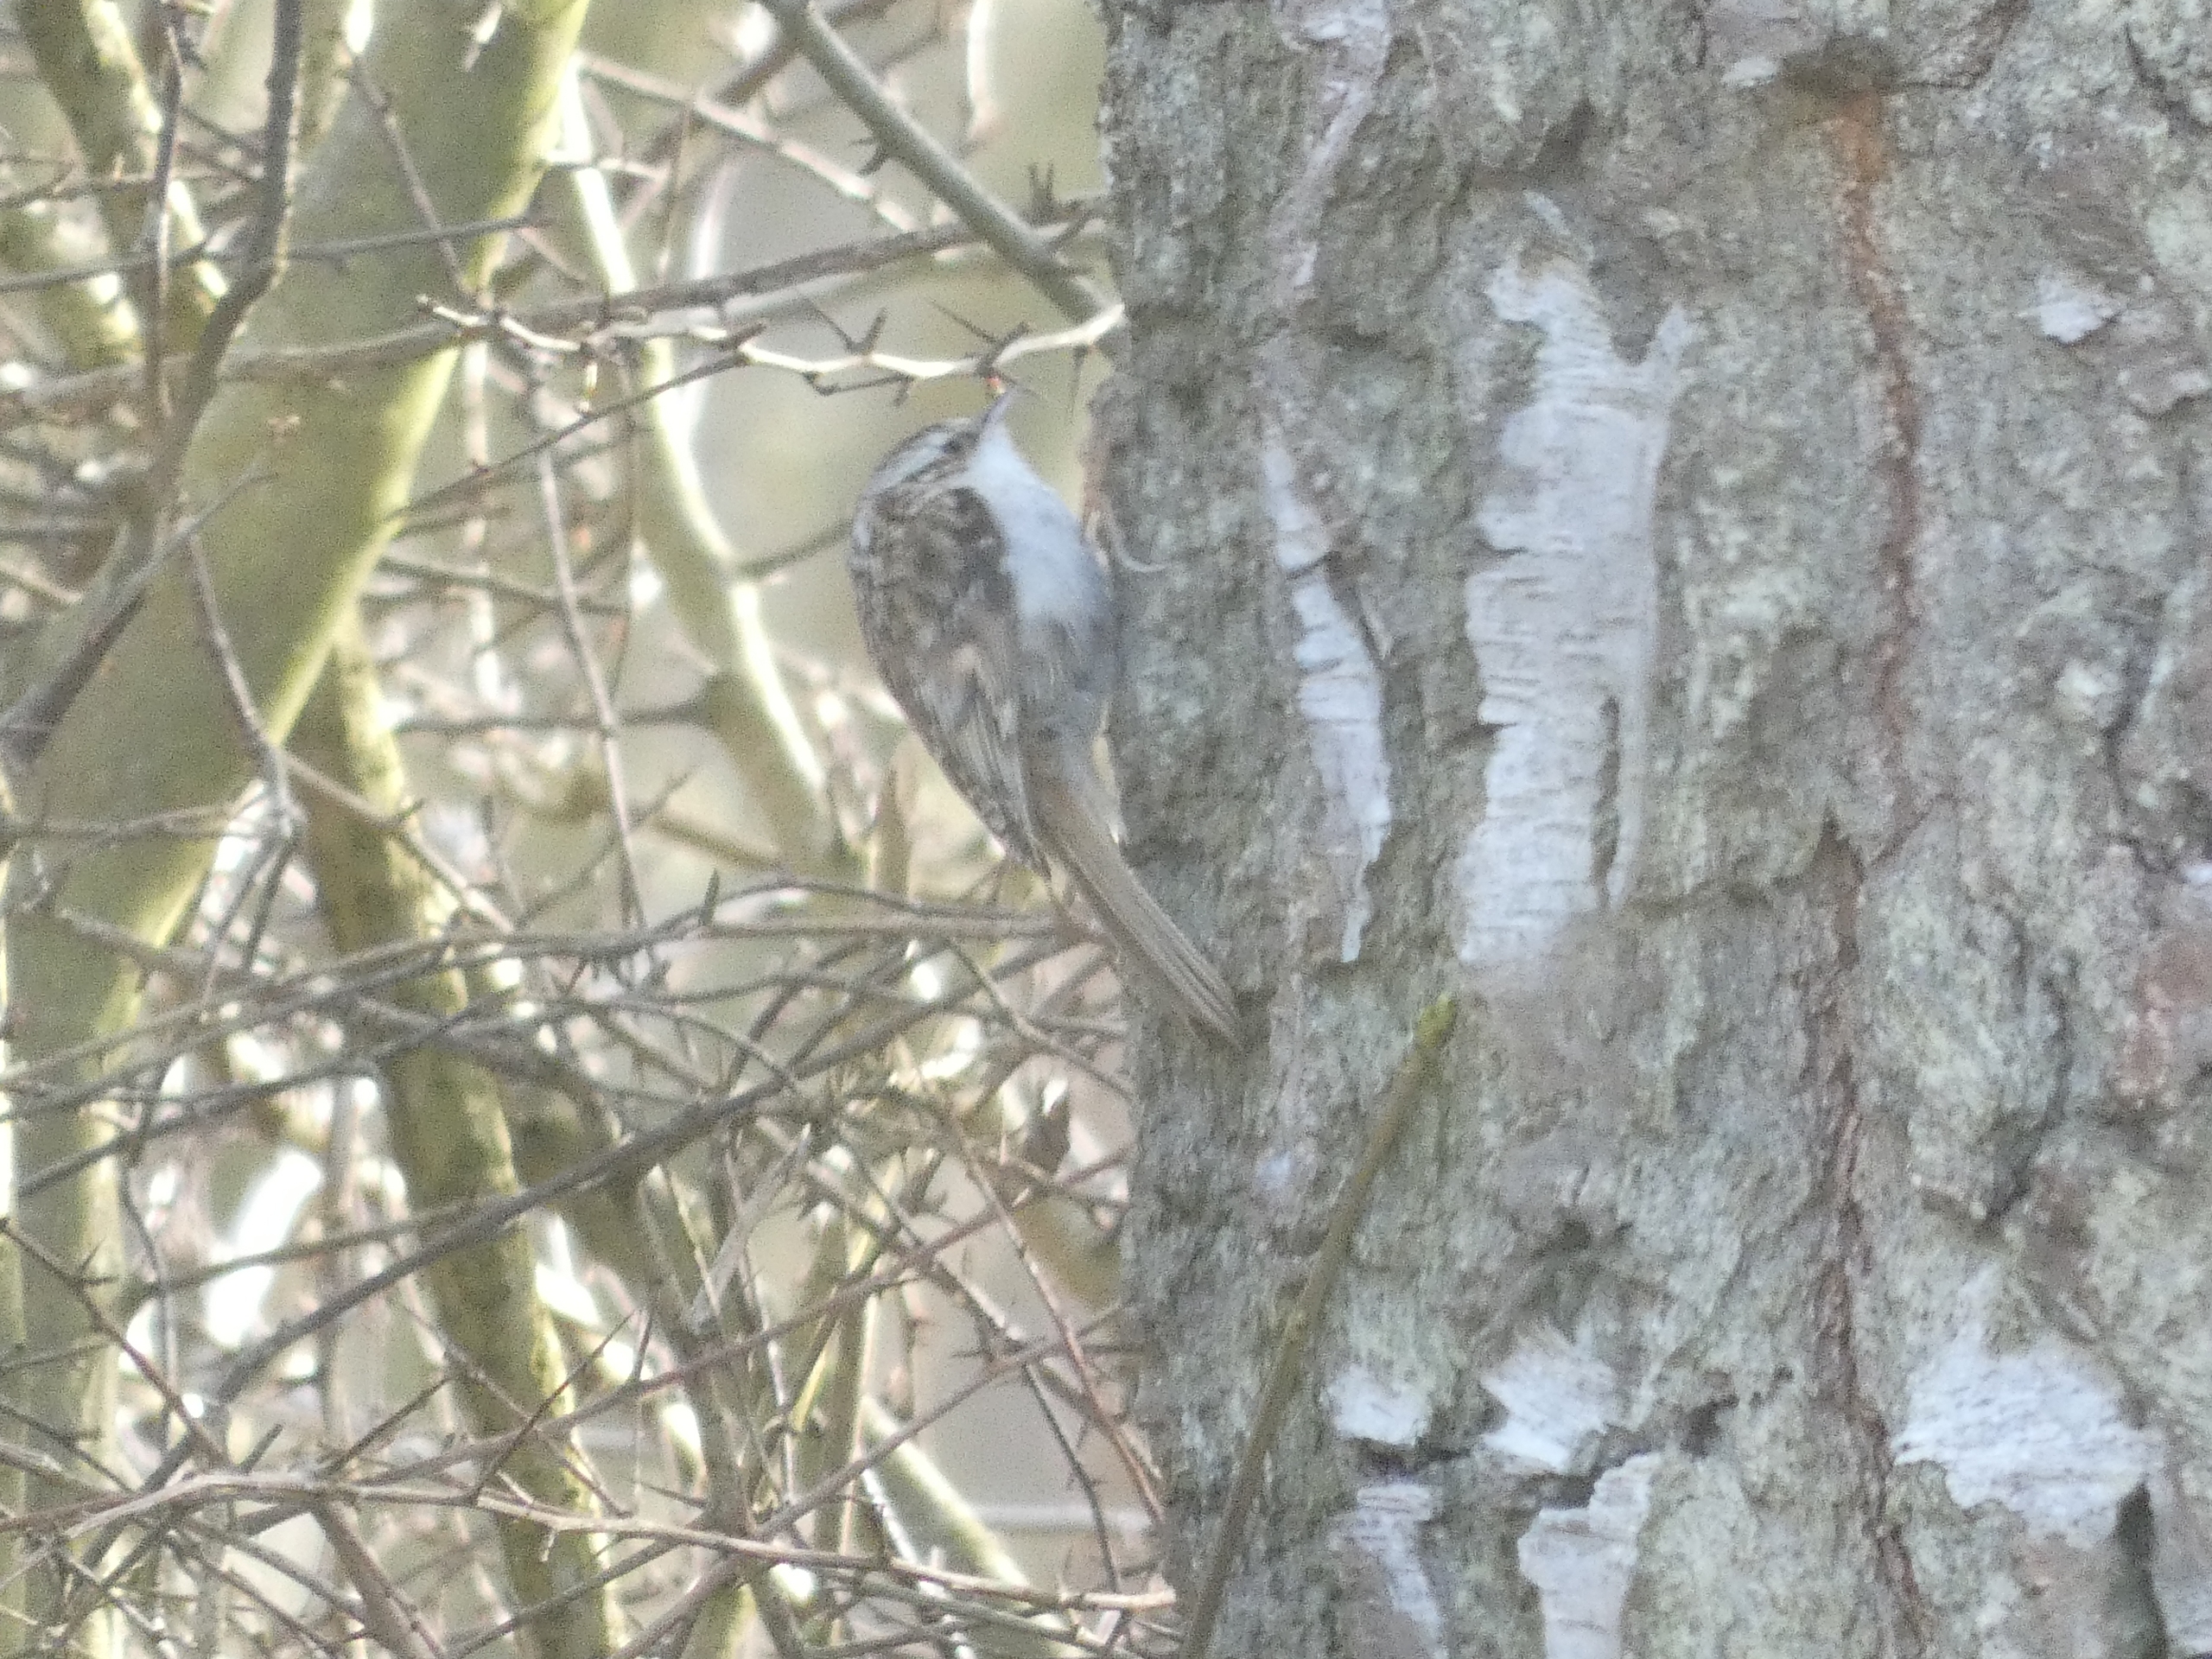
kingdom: Animalia
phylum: Chordata
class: Aves
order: Passeriformes
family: Certhiidae
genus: Certhia
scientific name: Certhia familiaris
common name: Træløber
